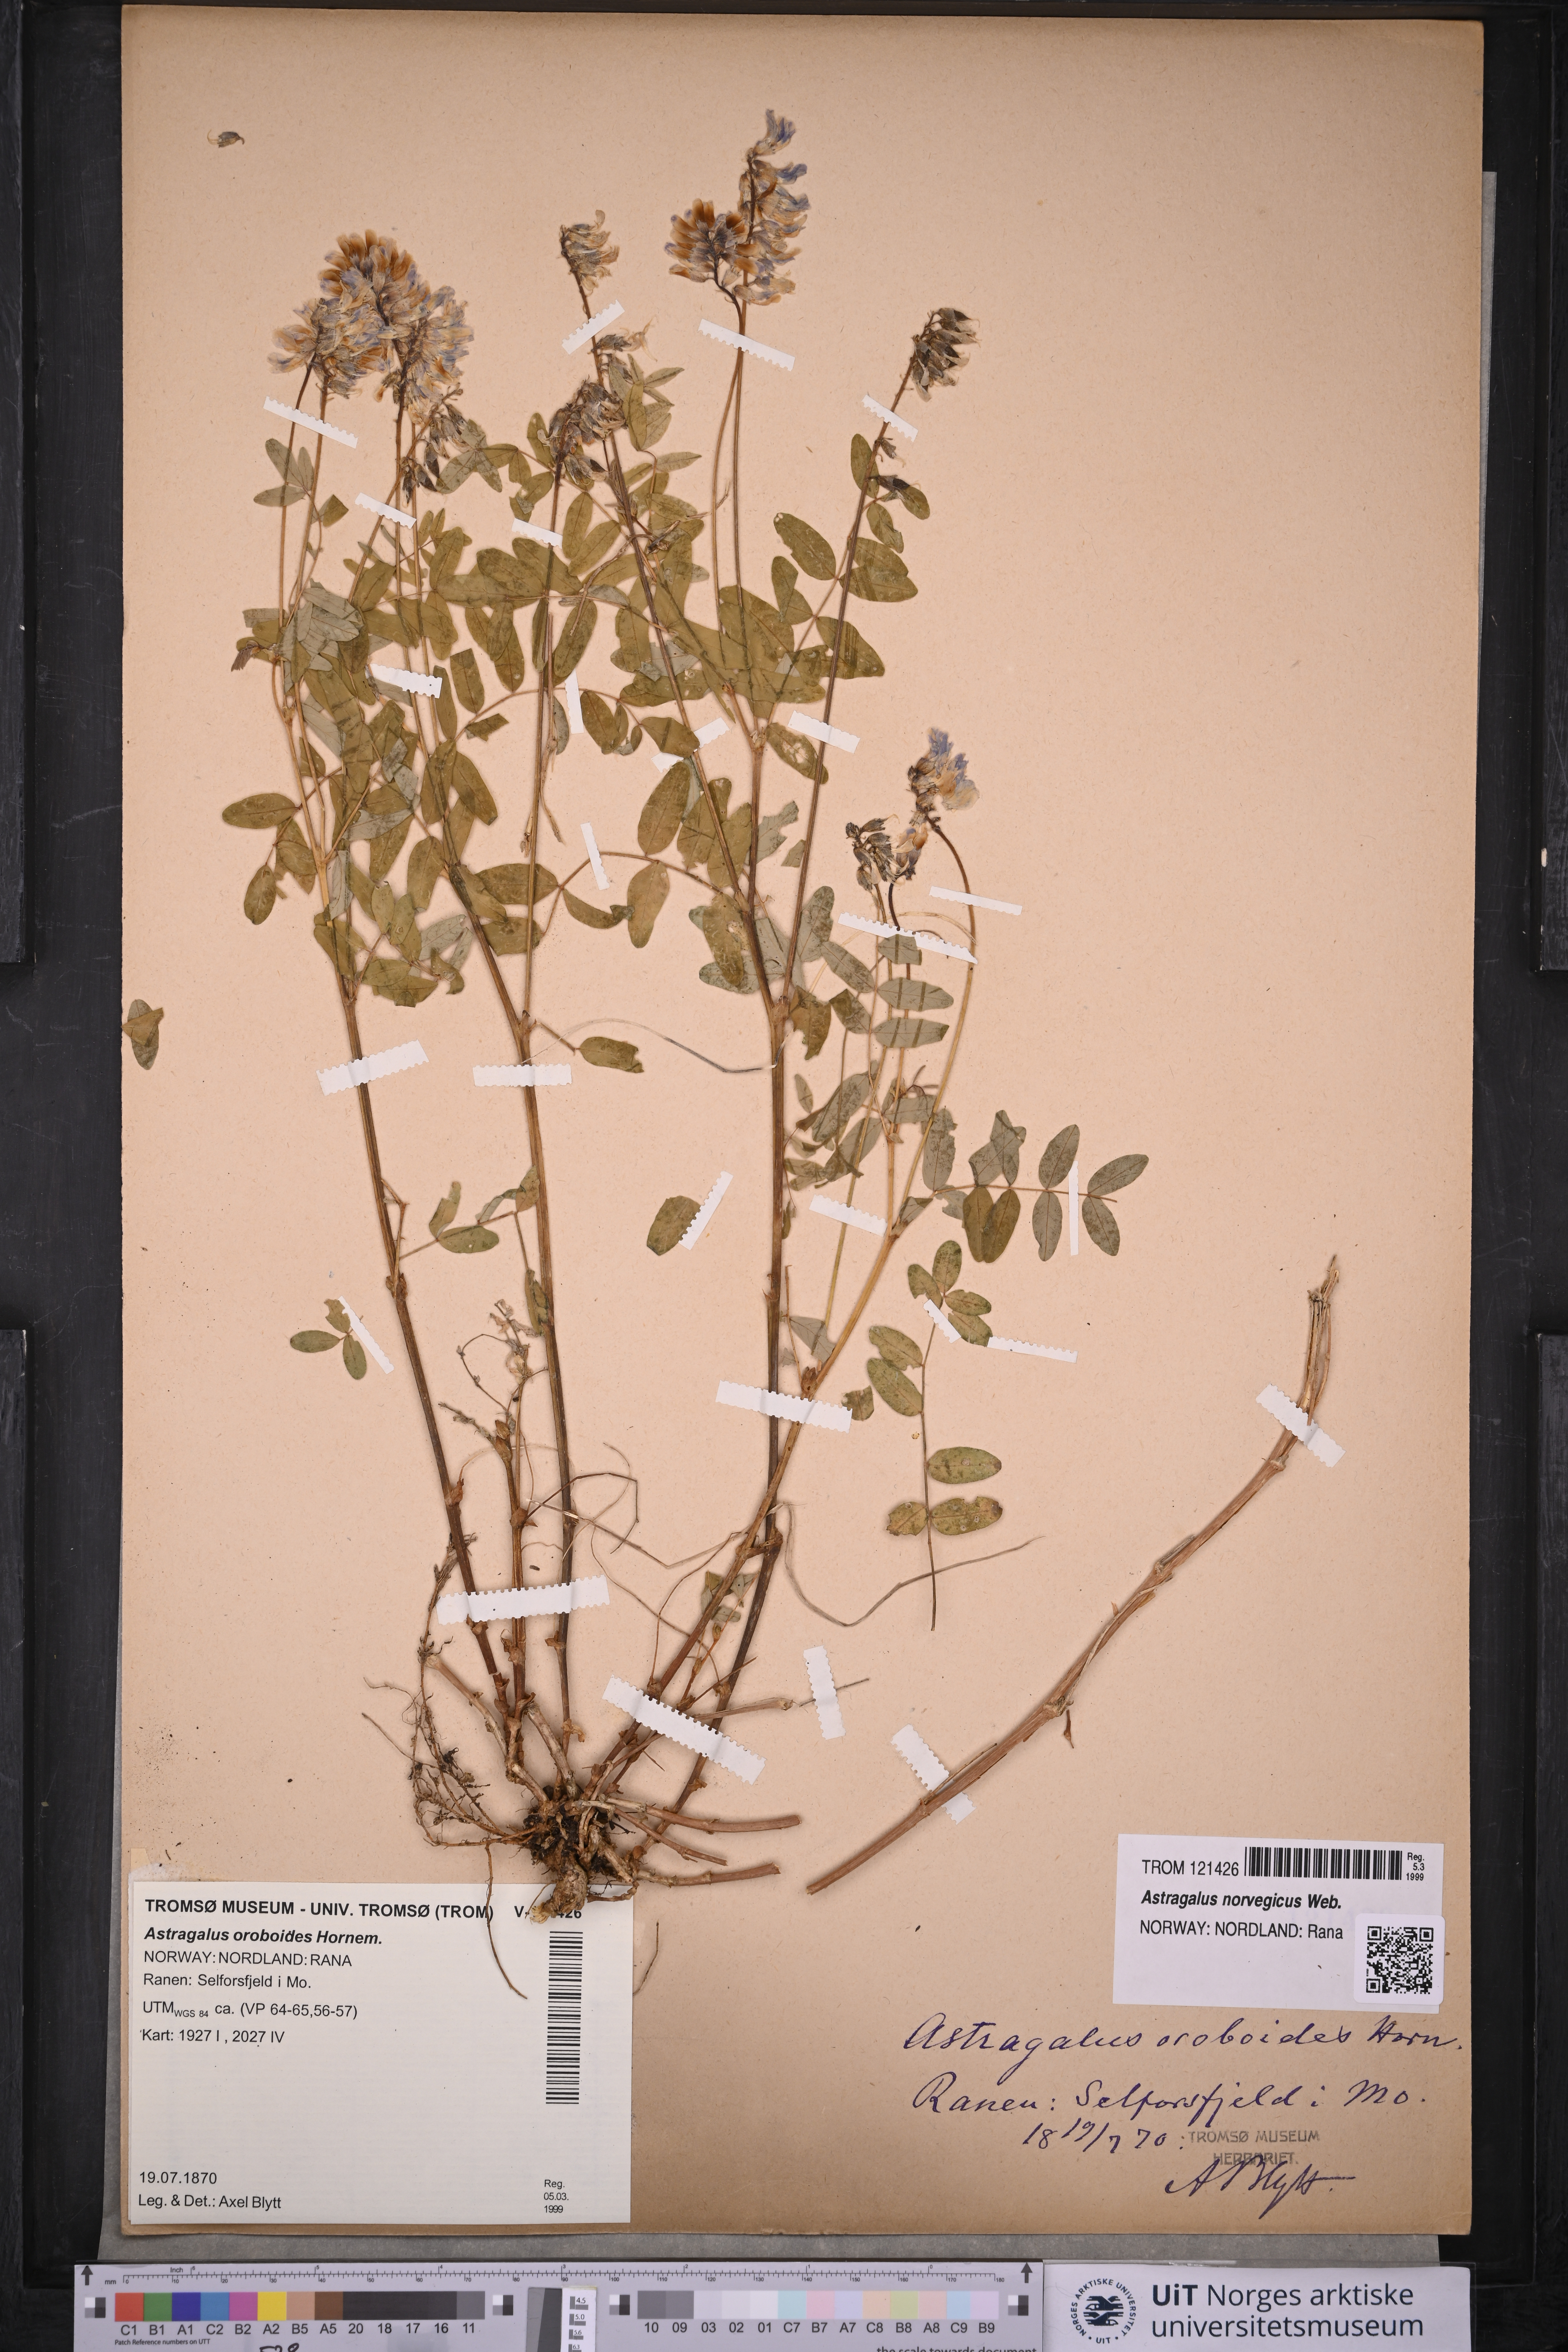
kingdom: Plantae
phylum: Tracheophyta
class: Magnoliopsida
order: Fabales
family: Fabaceae
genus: Astragalus
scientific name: Astragalus norvegicus
